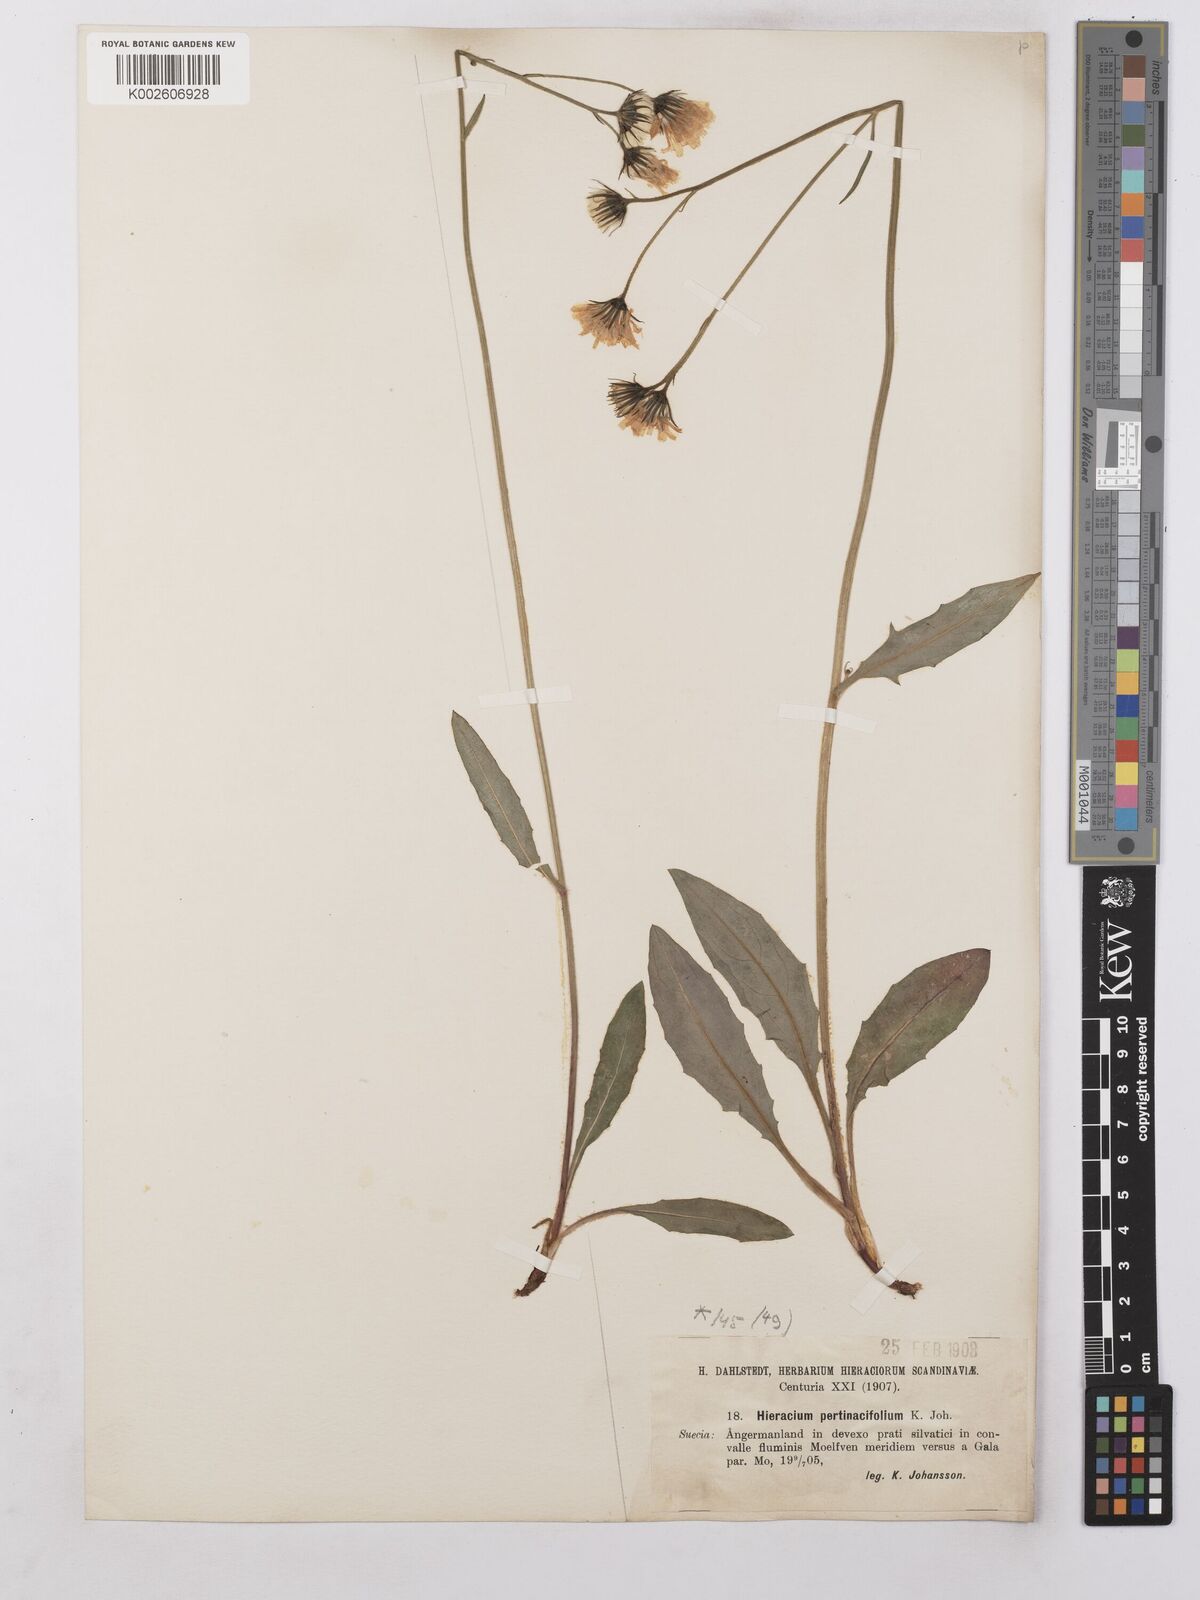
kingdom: Plantae
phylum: Tracheophyta
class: Magnoliopsida
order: Asterales
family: Asteraceae
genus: Hieracium
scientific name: Hieracium
